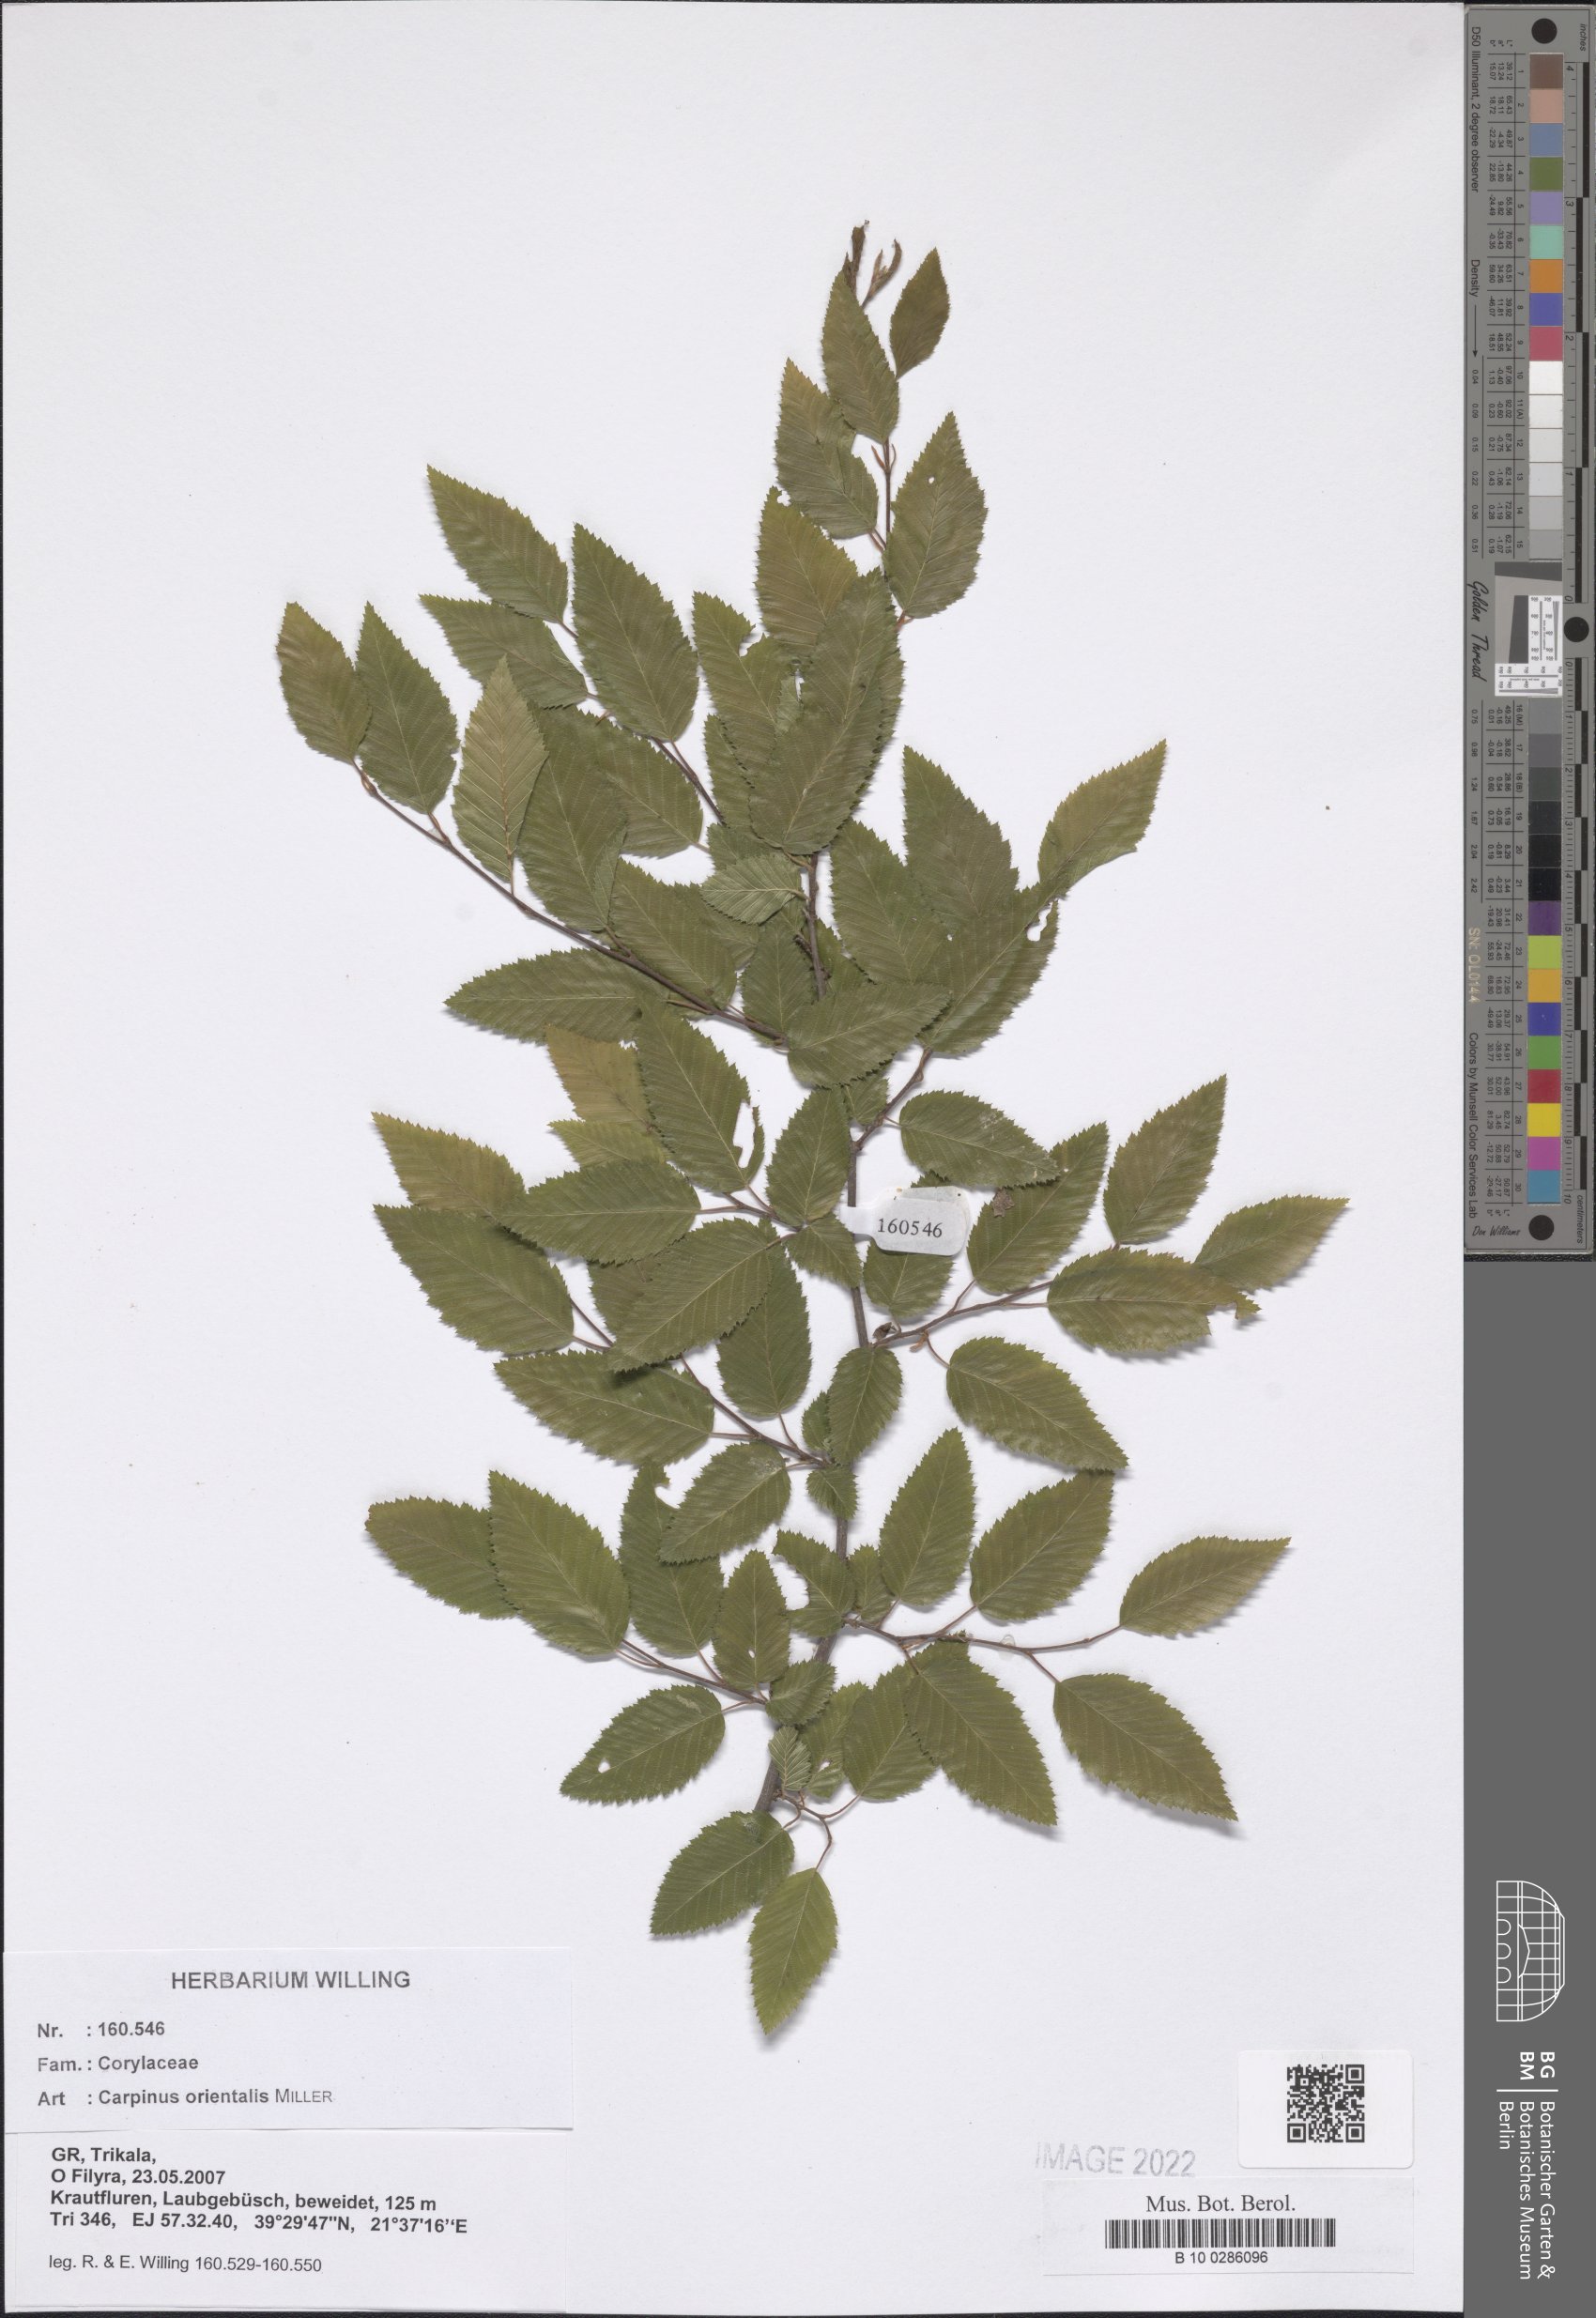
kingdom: Plantae
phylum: Tracheophyta
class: Magnoliopsida
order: Fagales
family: Betulaceae
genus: Carpinus
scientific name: Carpinus orientalis
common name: Eastern hornbeam
